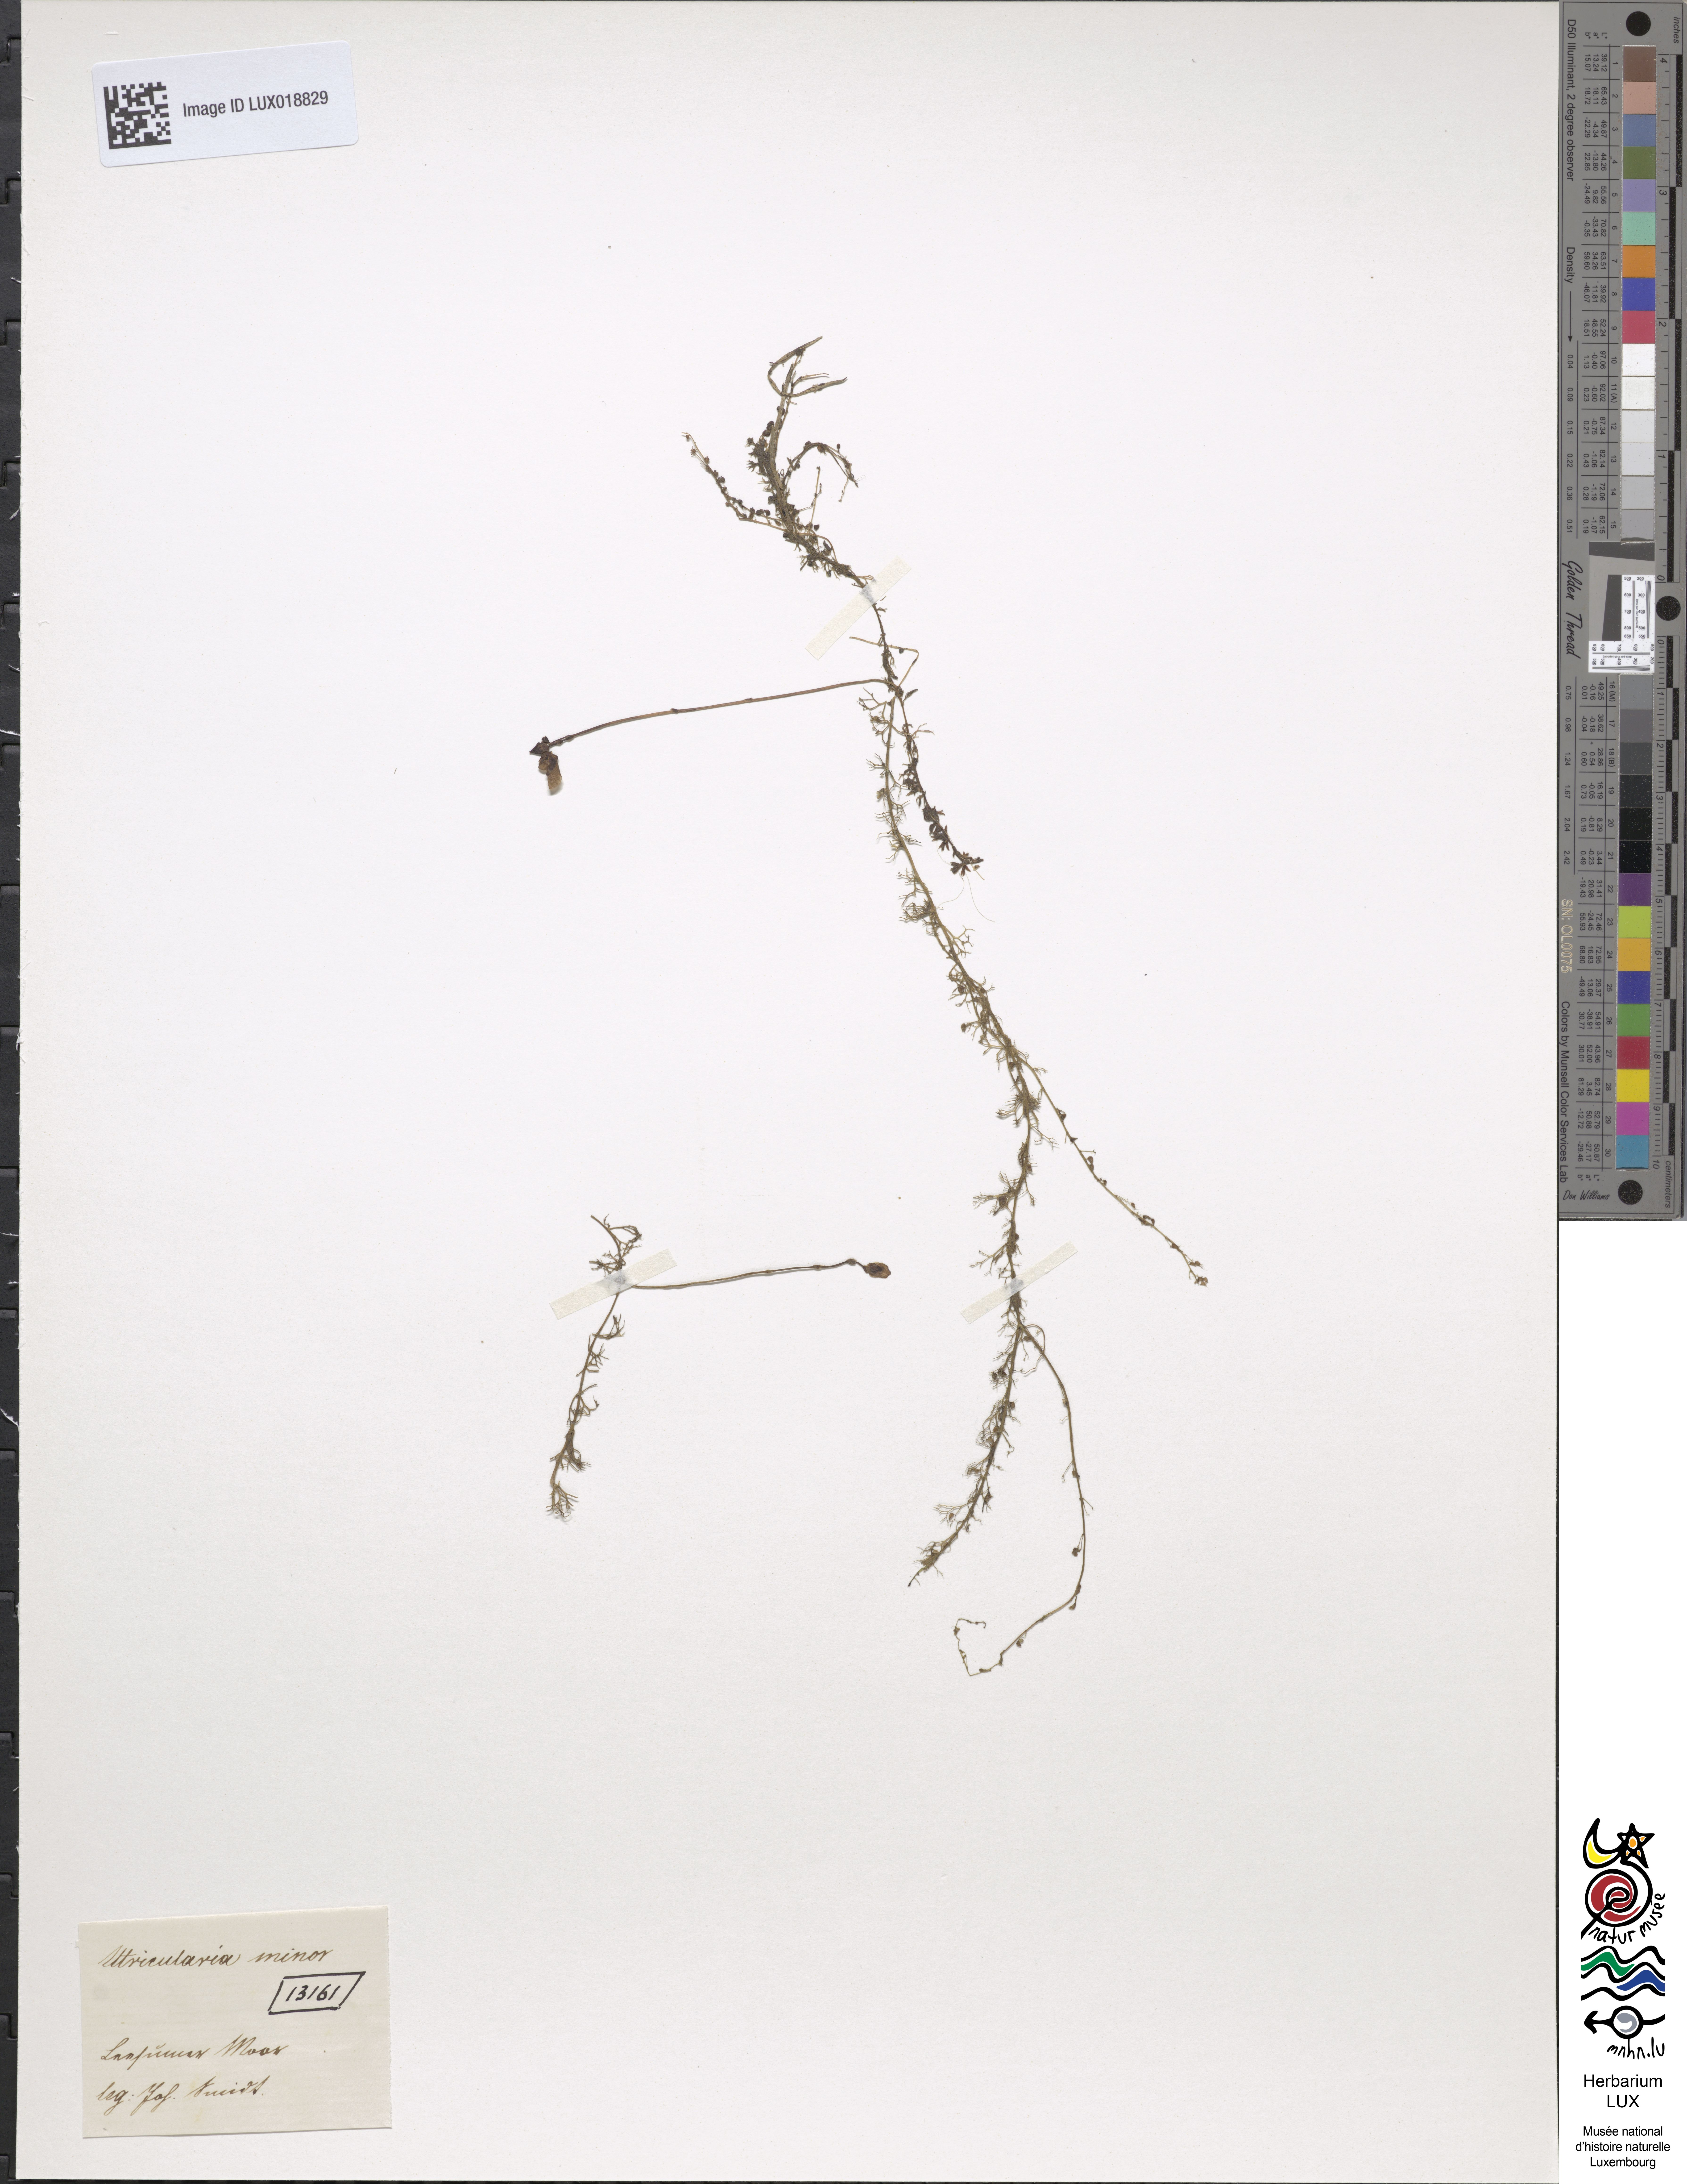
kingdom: Plantae
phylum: Tracheophyta
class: Magnoliopsida
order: Lamiales
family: Lentibulariaceae
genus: Utricularia
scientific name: Utricularia minor
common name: Lesser bladderwort
